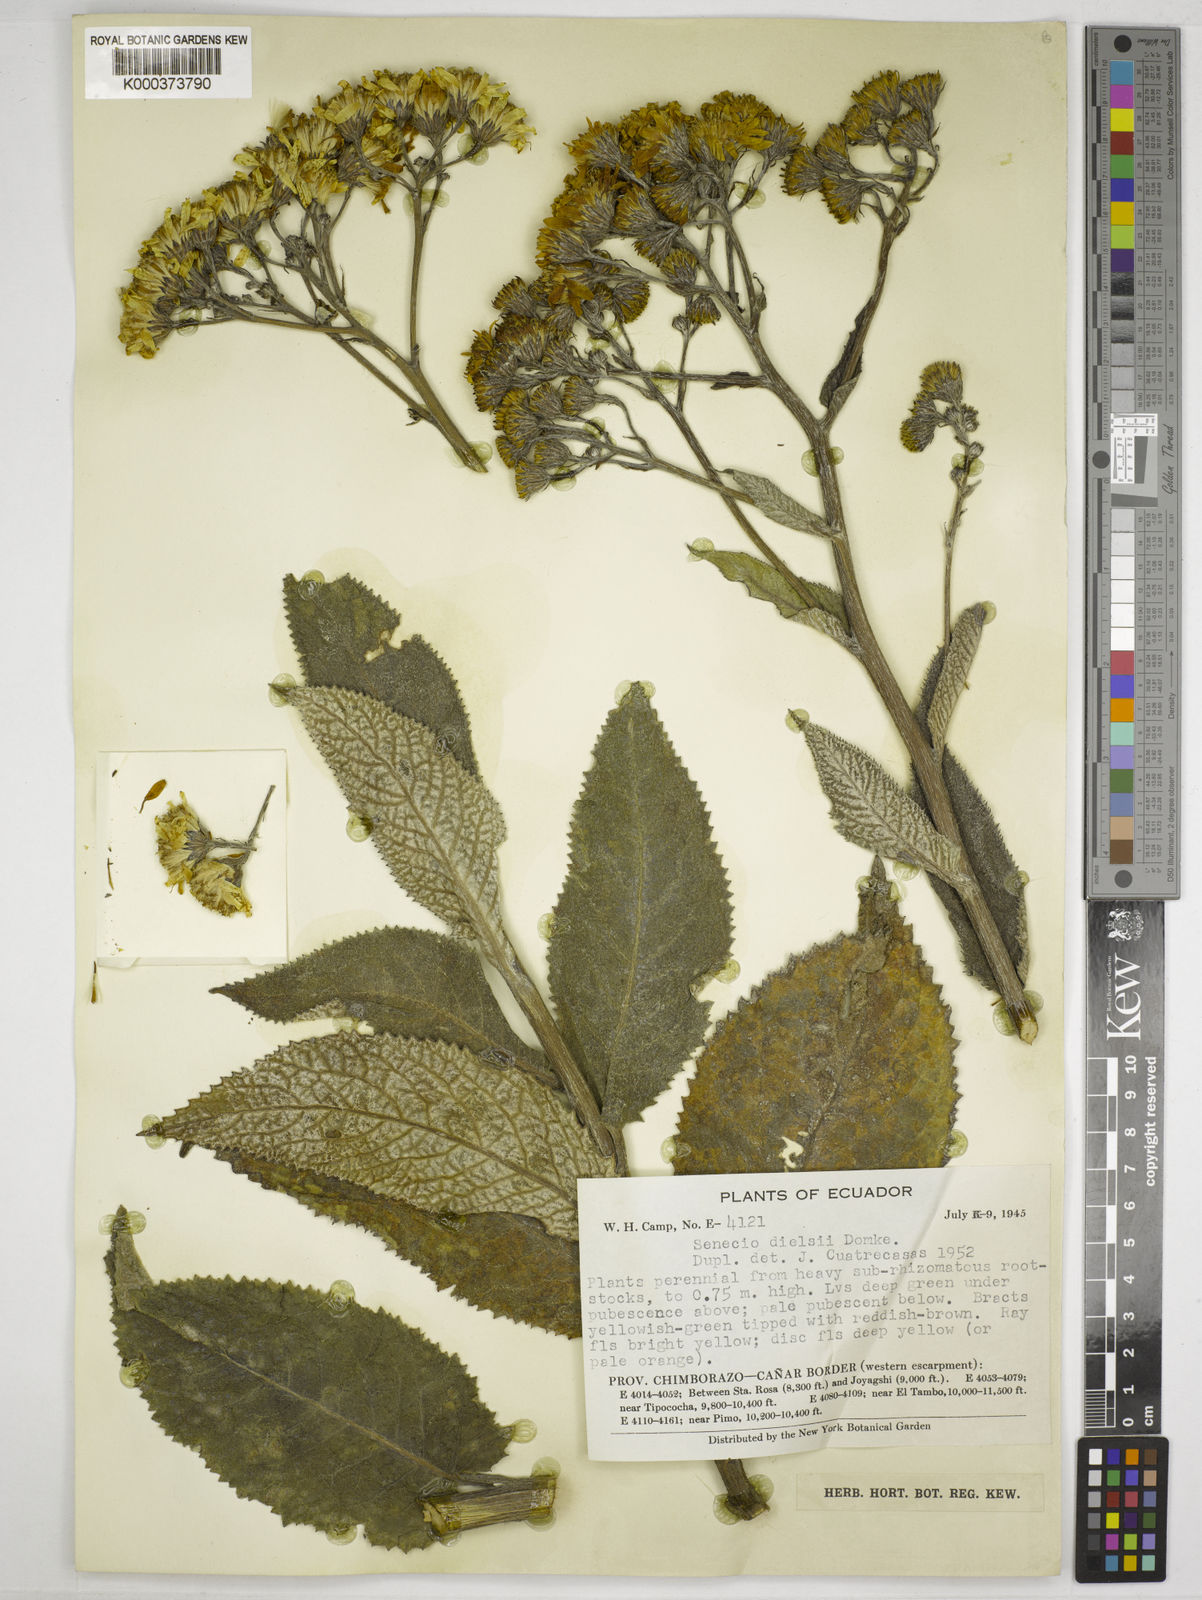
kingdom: Plantae
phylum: Tracheophyta
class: Magnoliopsida
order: Asterales
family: Asteraceae
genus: Dendrophorbium
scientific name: Dendrophorbium dielsii
